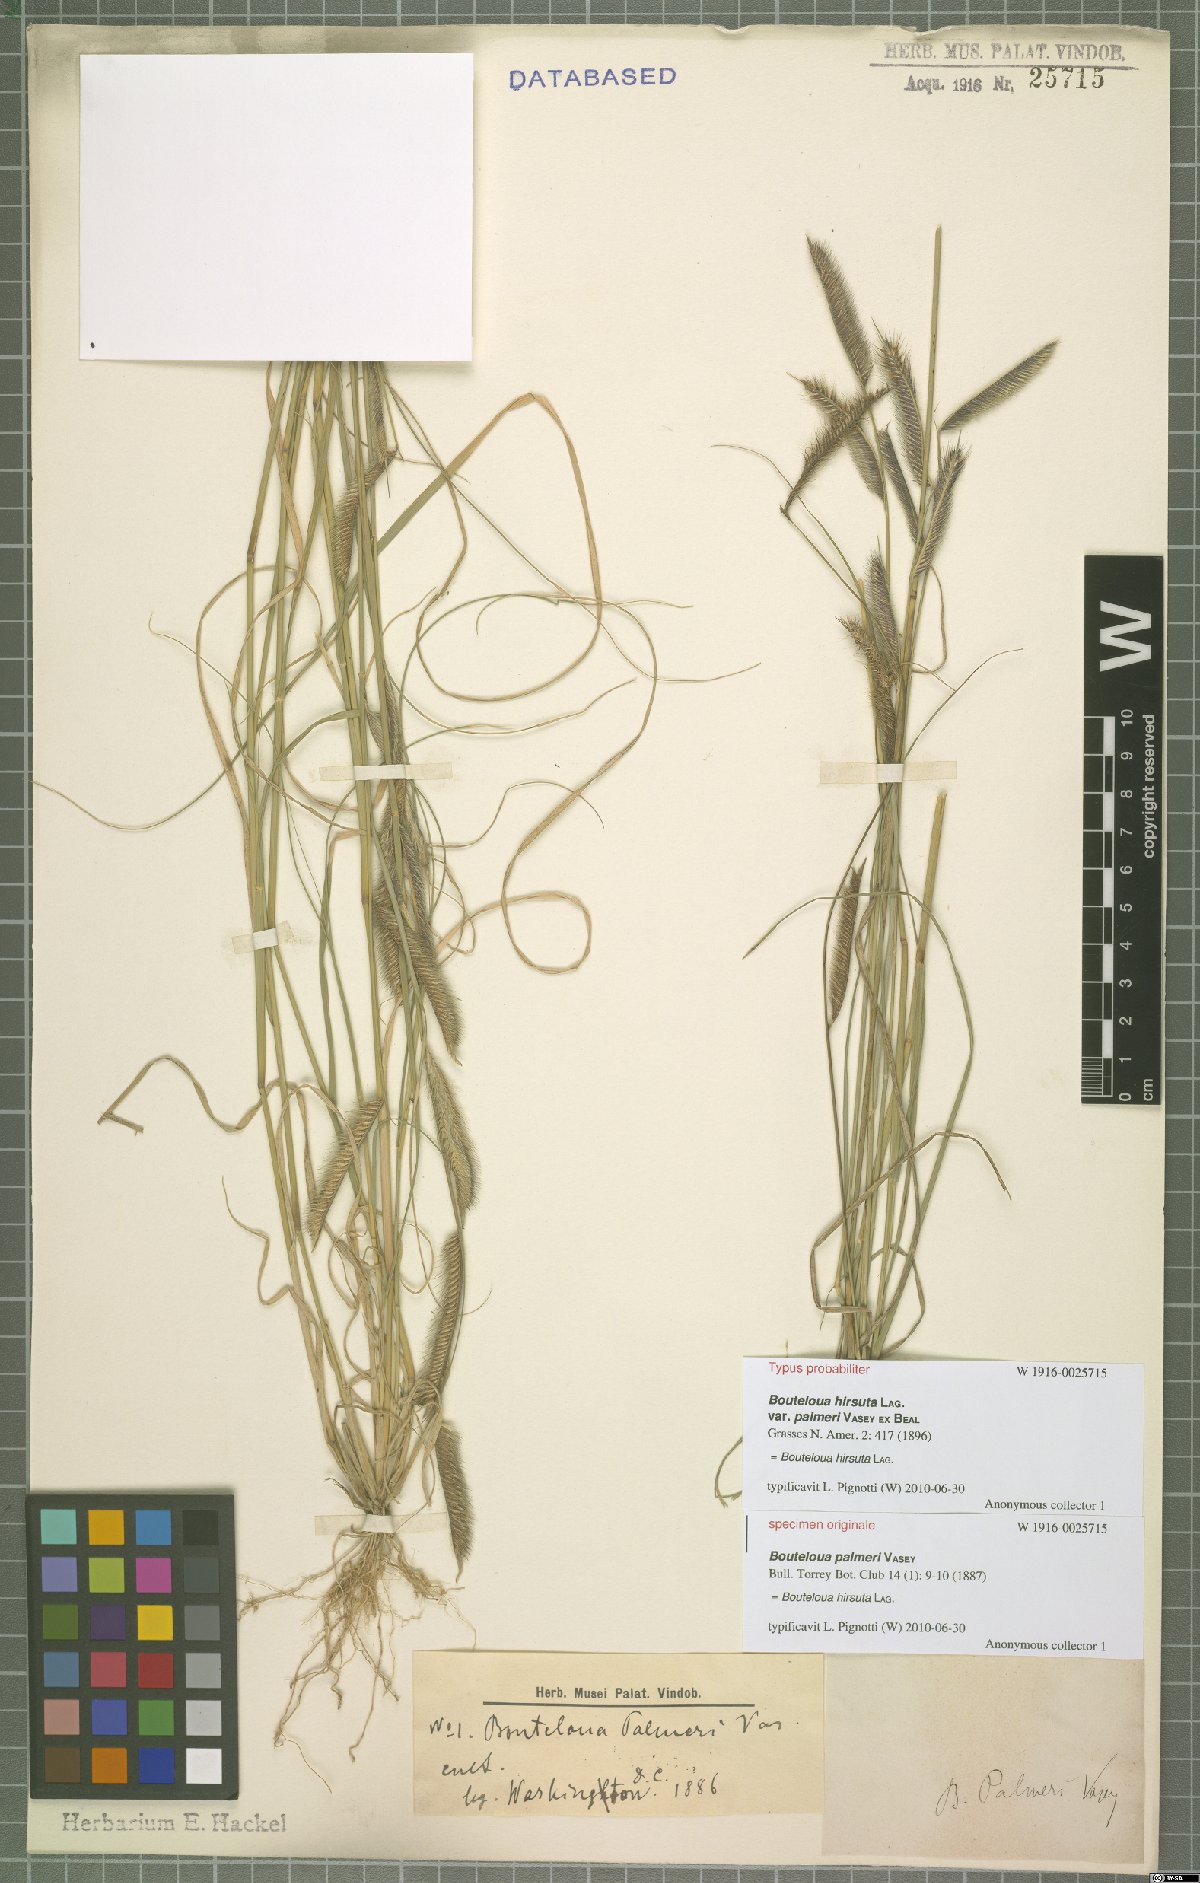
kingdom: Plantae
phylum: Tracheophyta
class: Liliopsida
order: Poales
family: Poaceae
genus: Bouteloua
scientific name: Bouteloua hirsuta
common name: Hairy grama
